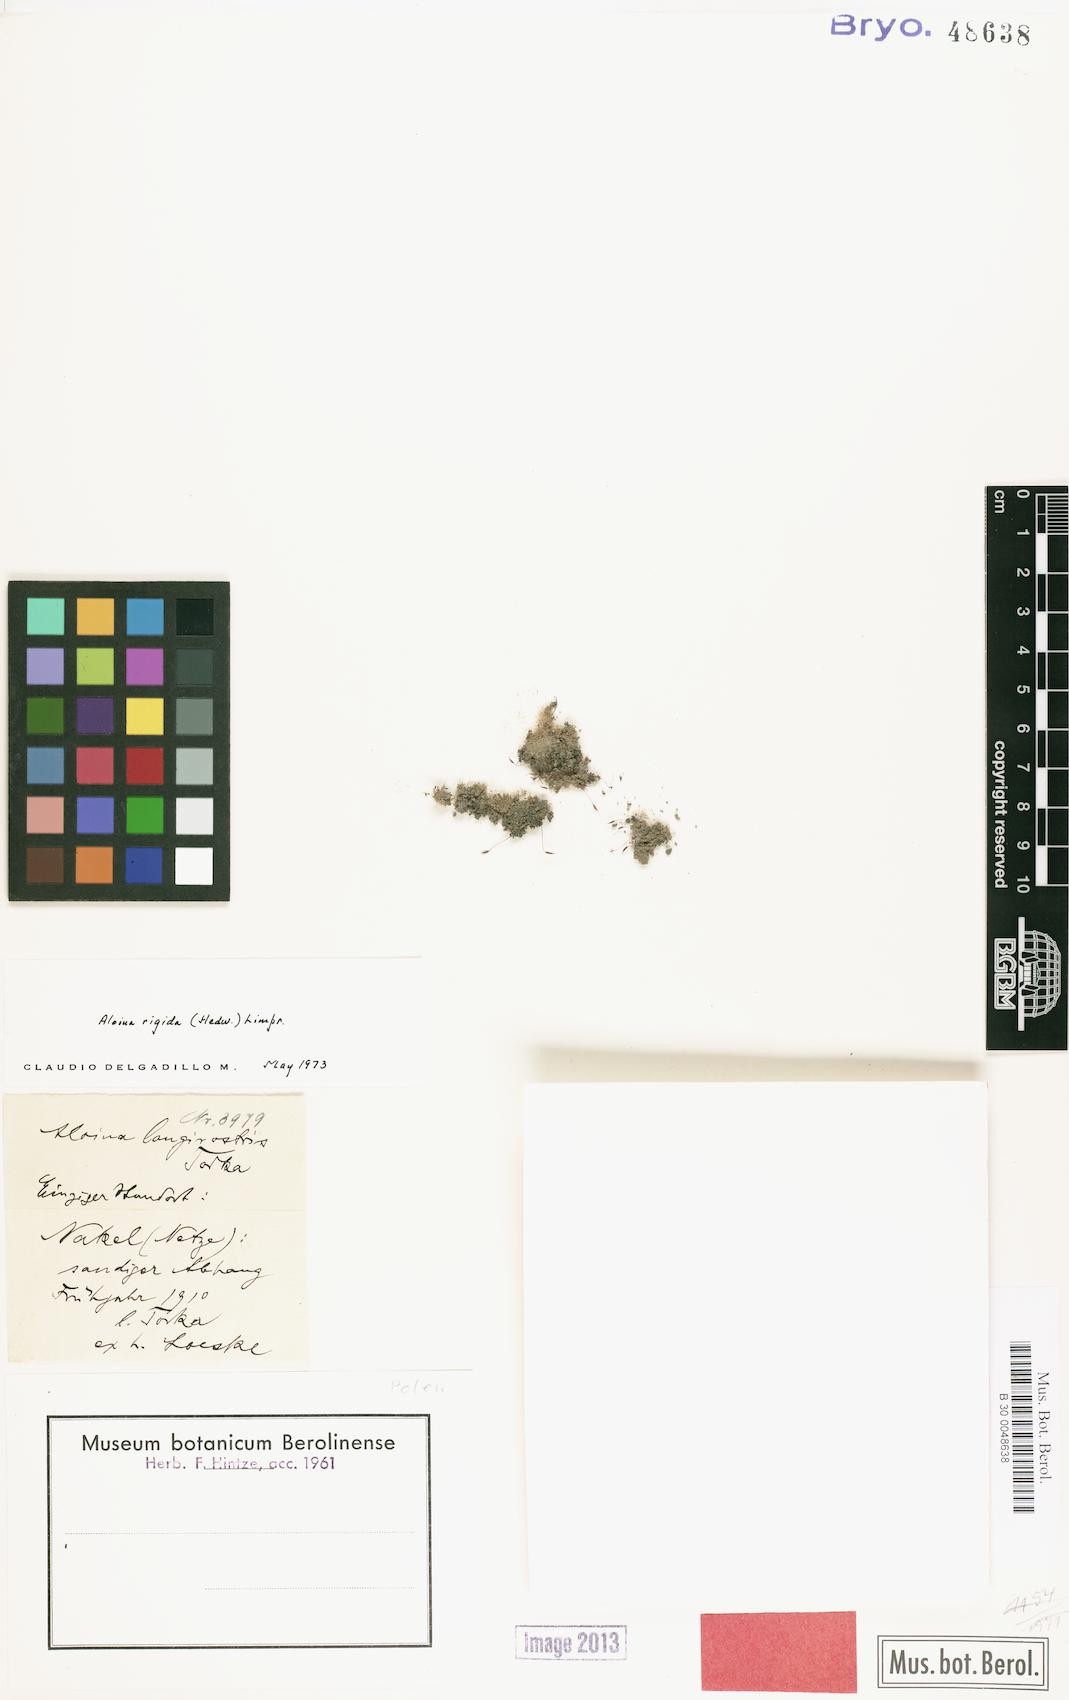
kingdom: Plantae
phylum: Bryophyta
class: Bryopsida
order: Pottiales
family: Pottiaceae
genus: Aloina
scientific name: Aloina rigida
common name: Rigid screw moss
